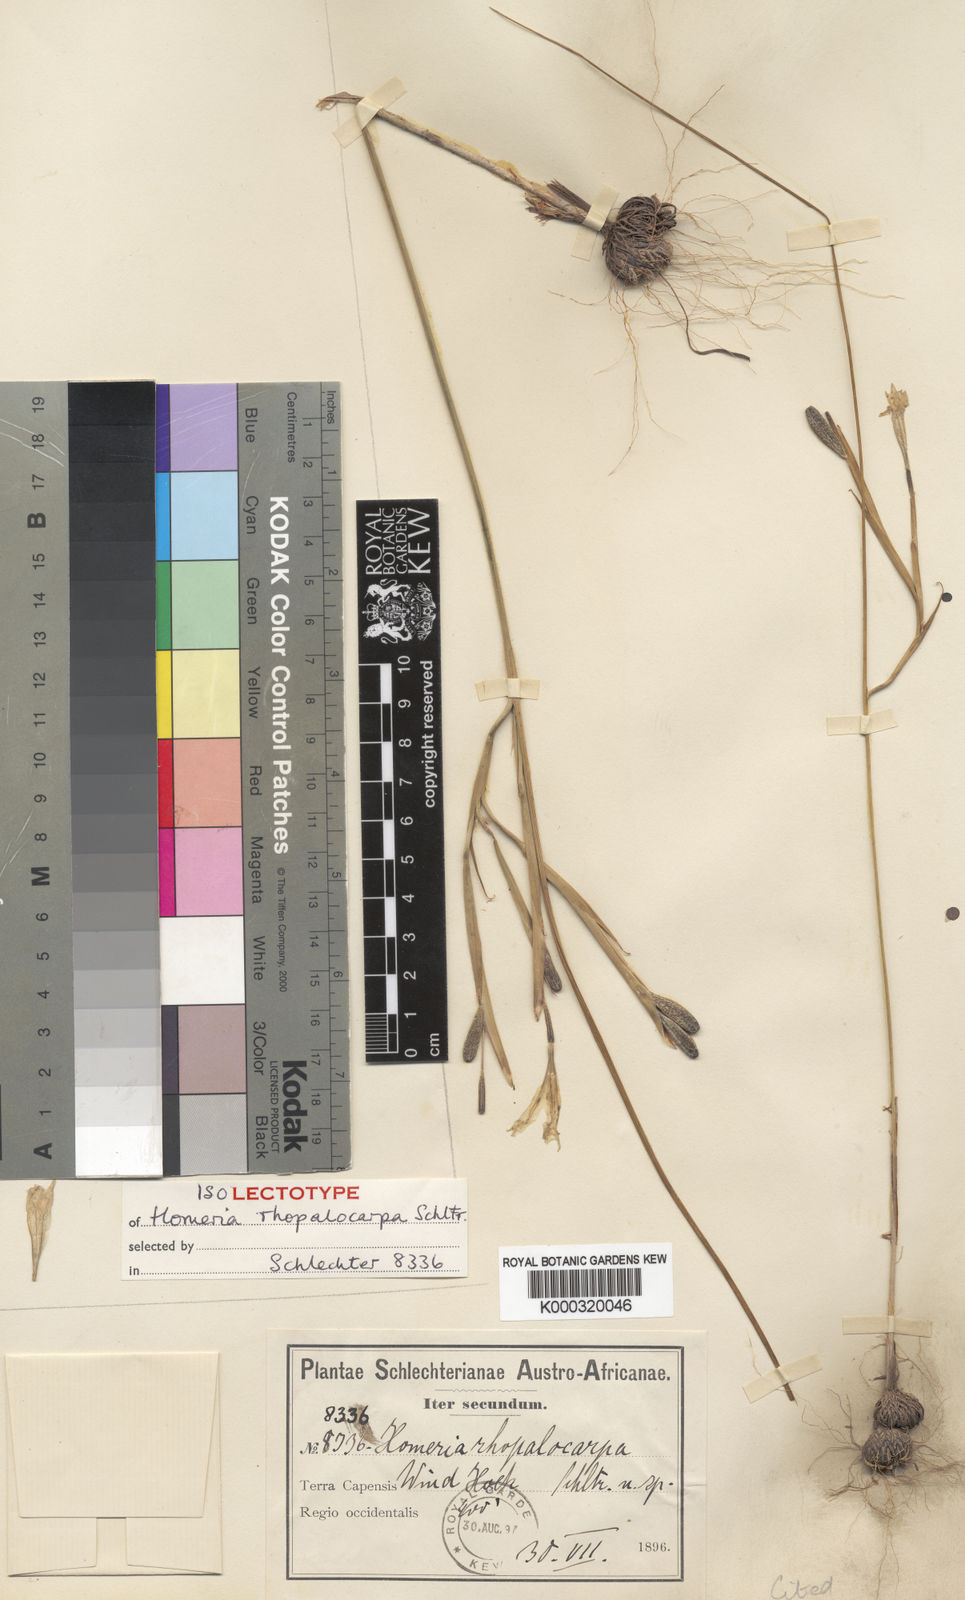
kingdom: Plantae
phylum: Tracheophyta
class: Liliopsida
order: Asparagales
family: Iridaceae
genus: Moraea
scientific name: Moraea minor
